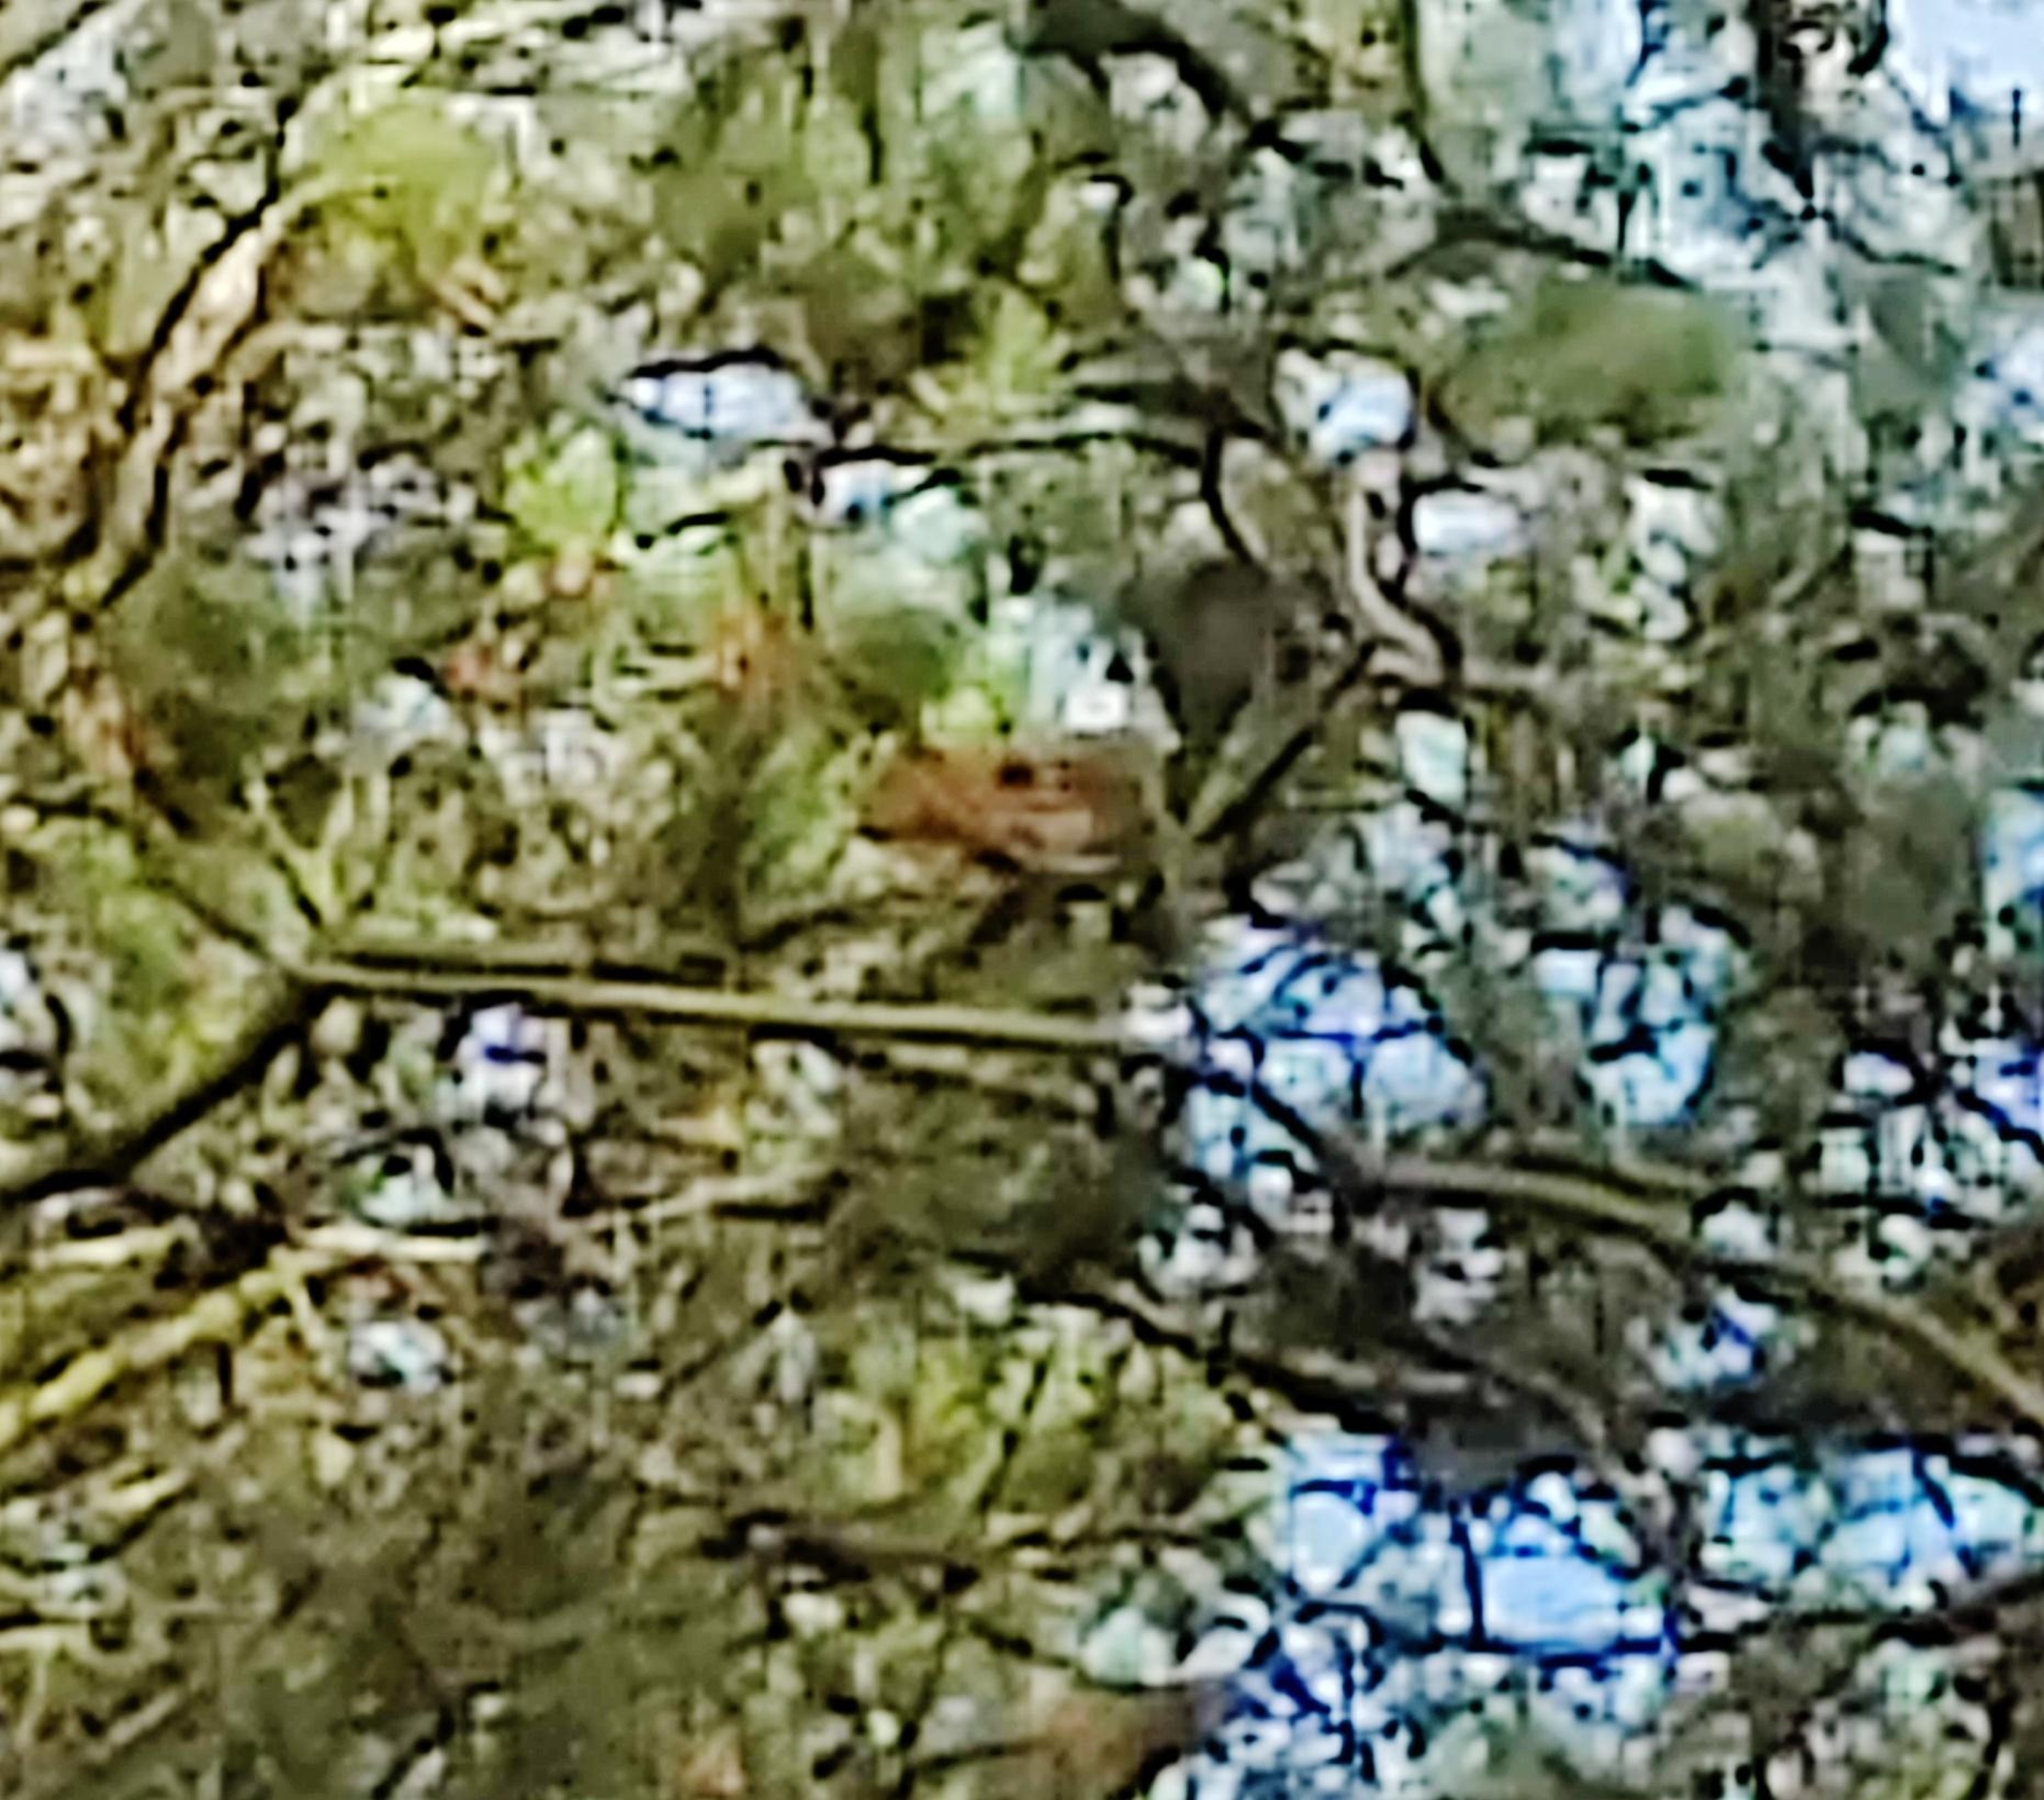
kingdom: Animalia
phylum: Chordata
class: Mammalia
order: Rodentia
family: Sciuridae
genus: Sciurus
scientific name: Sciurus vulgaris
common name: Egern
